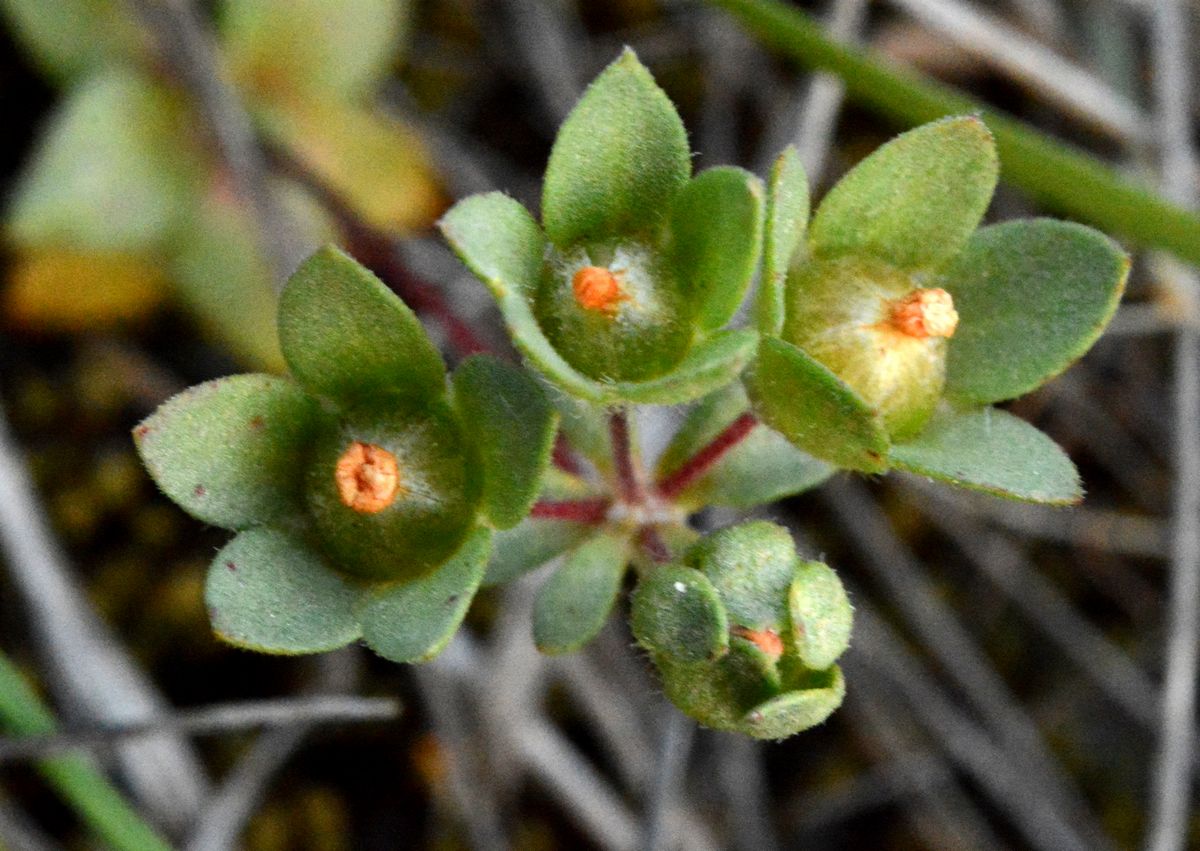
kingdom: Plantae
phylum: Tracheophyta
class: Magnoliopsida
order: Ericales
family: Primulaceae
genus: Androsace
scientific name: Androsace elongata
